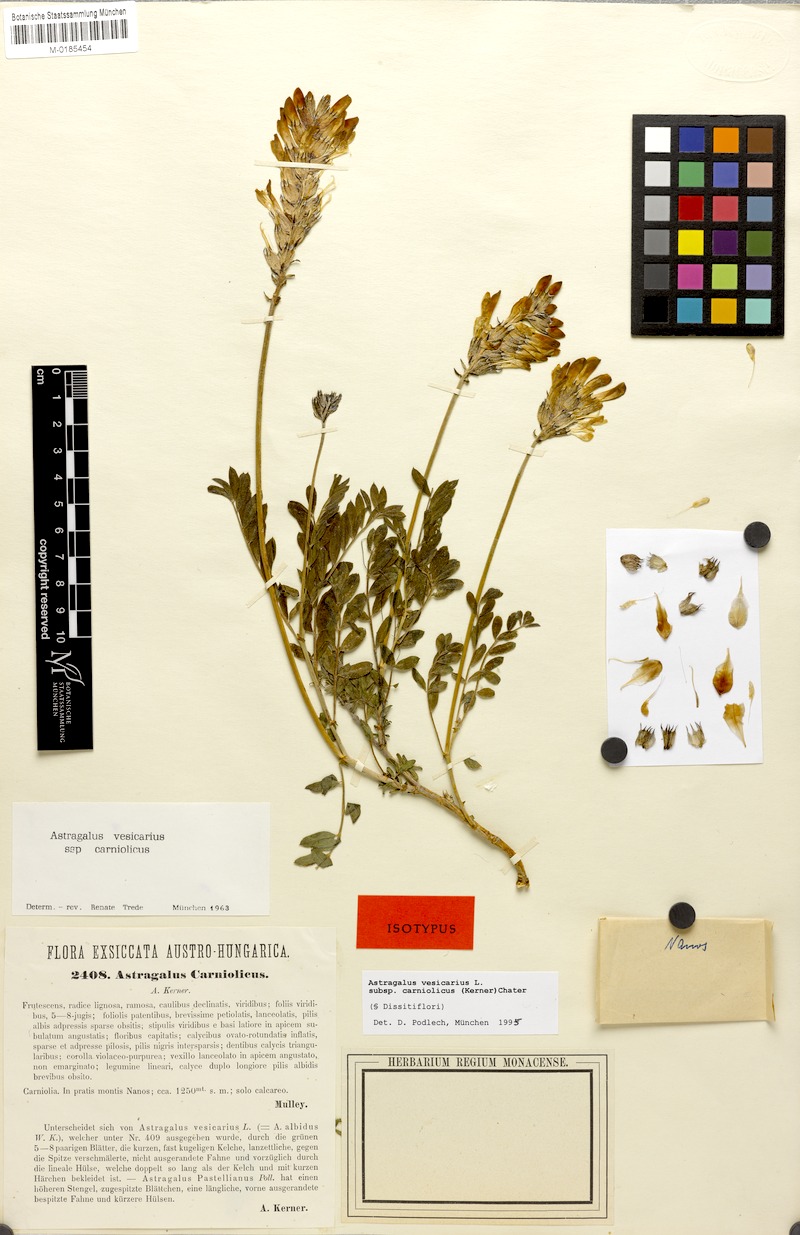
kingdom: Plantae
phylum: Tracheophyta
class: Magnoliopsida
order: Fabales
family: Fabaceae
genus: Astragalus
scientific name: Astragalus vesicarius
